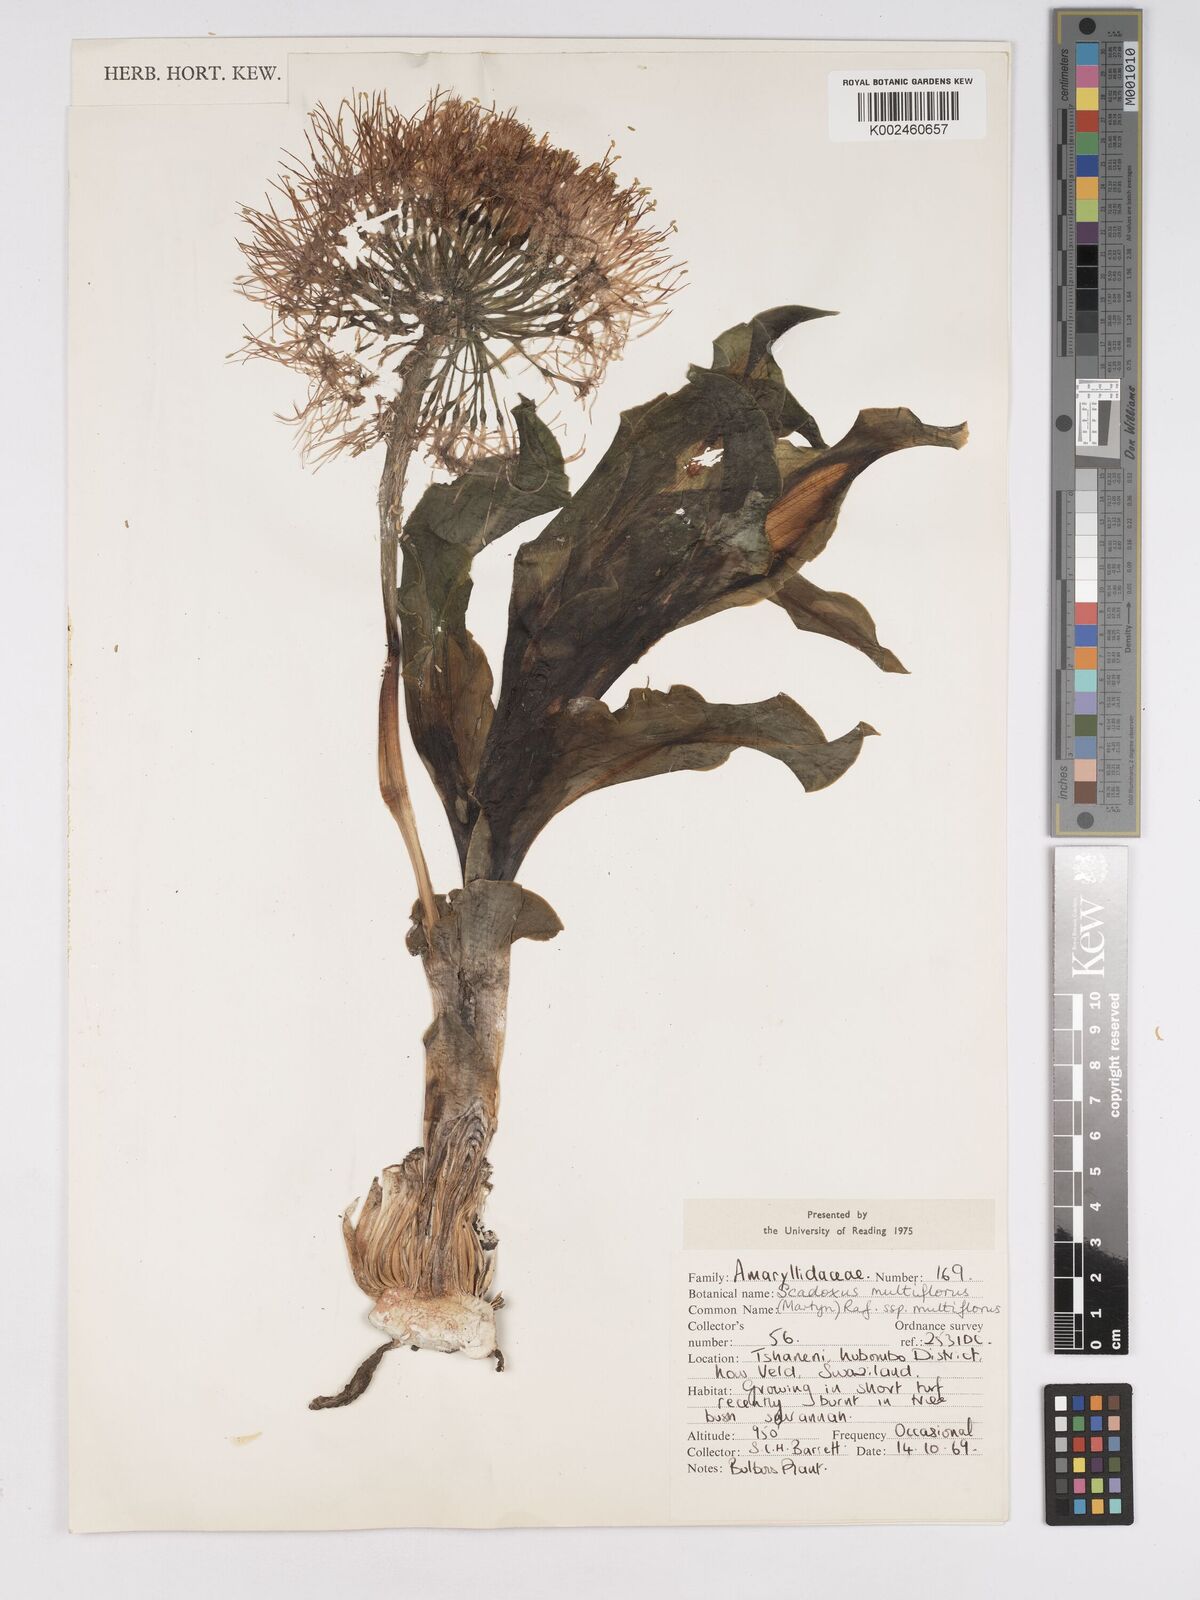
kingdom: Plantae
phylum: Tracheophyta
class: Liliopsida
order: Asparagales
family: Amaryllidaceae
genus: Scadoxus
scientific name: Scadoxus multiflorus
